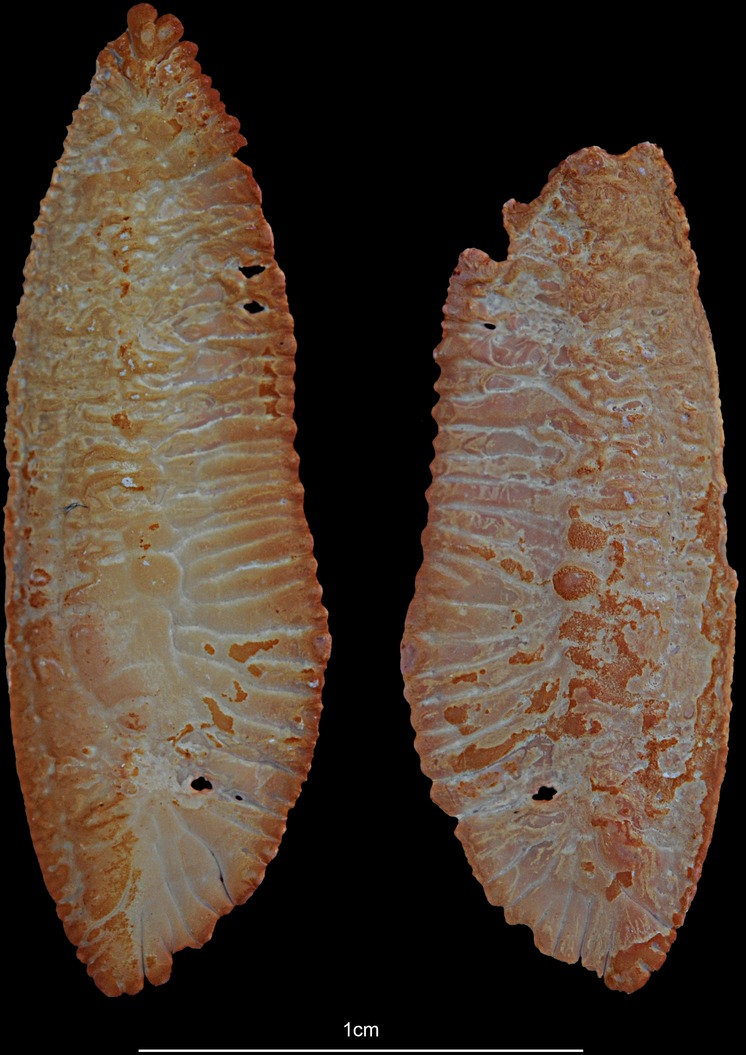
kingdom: Animalia
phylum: Chordata
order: Lophiiformes
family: Lophiidae
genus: Lophius
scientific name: Lophius piscatorius
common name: Angler
